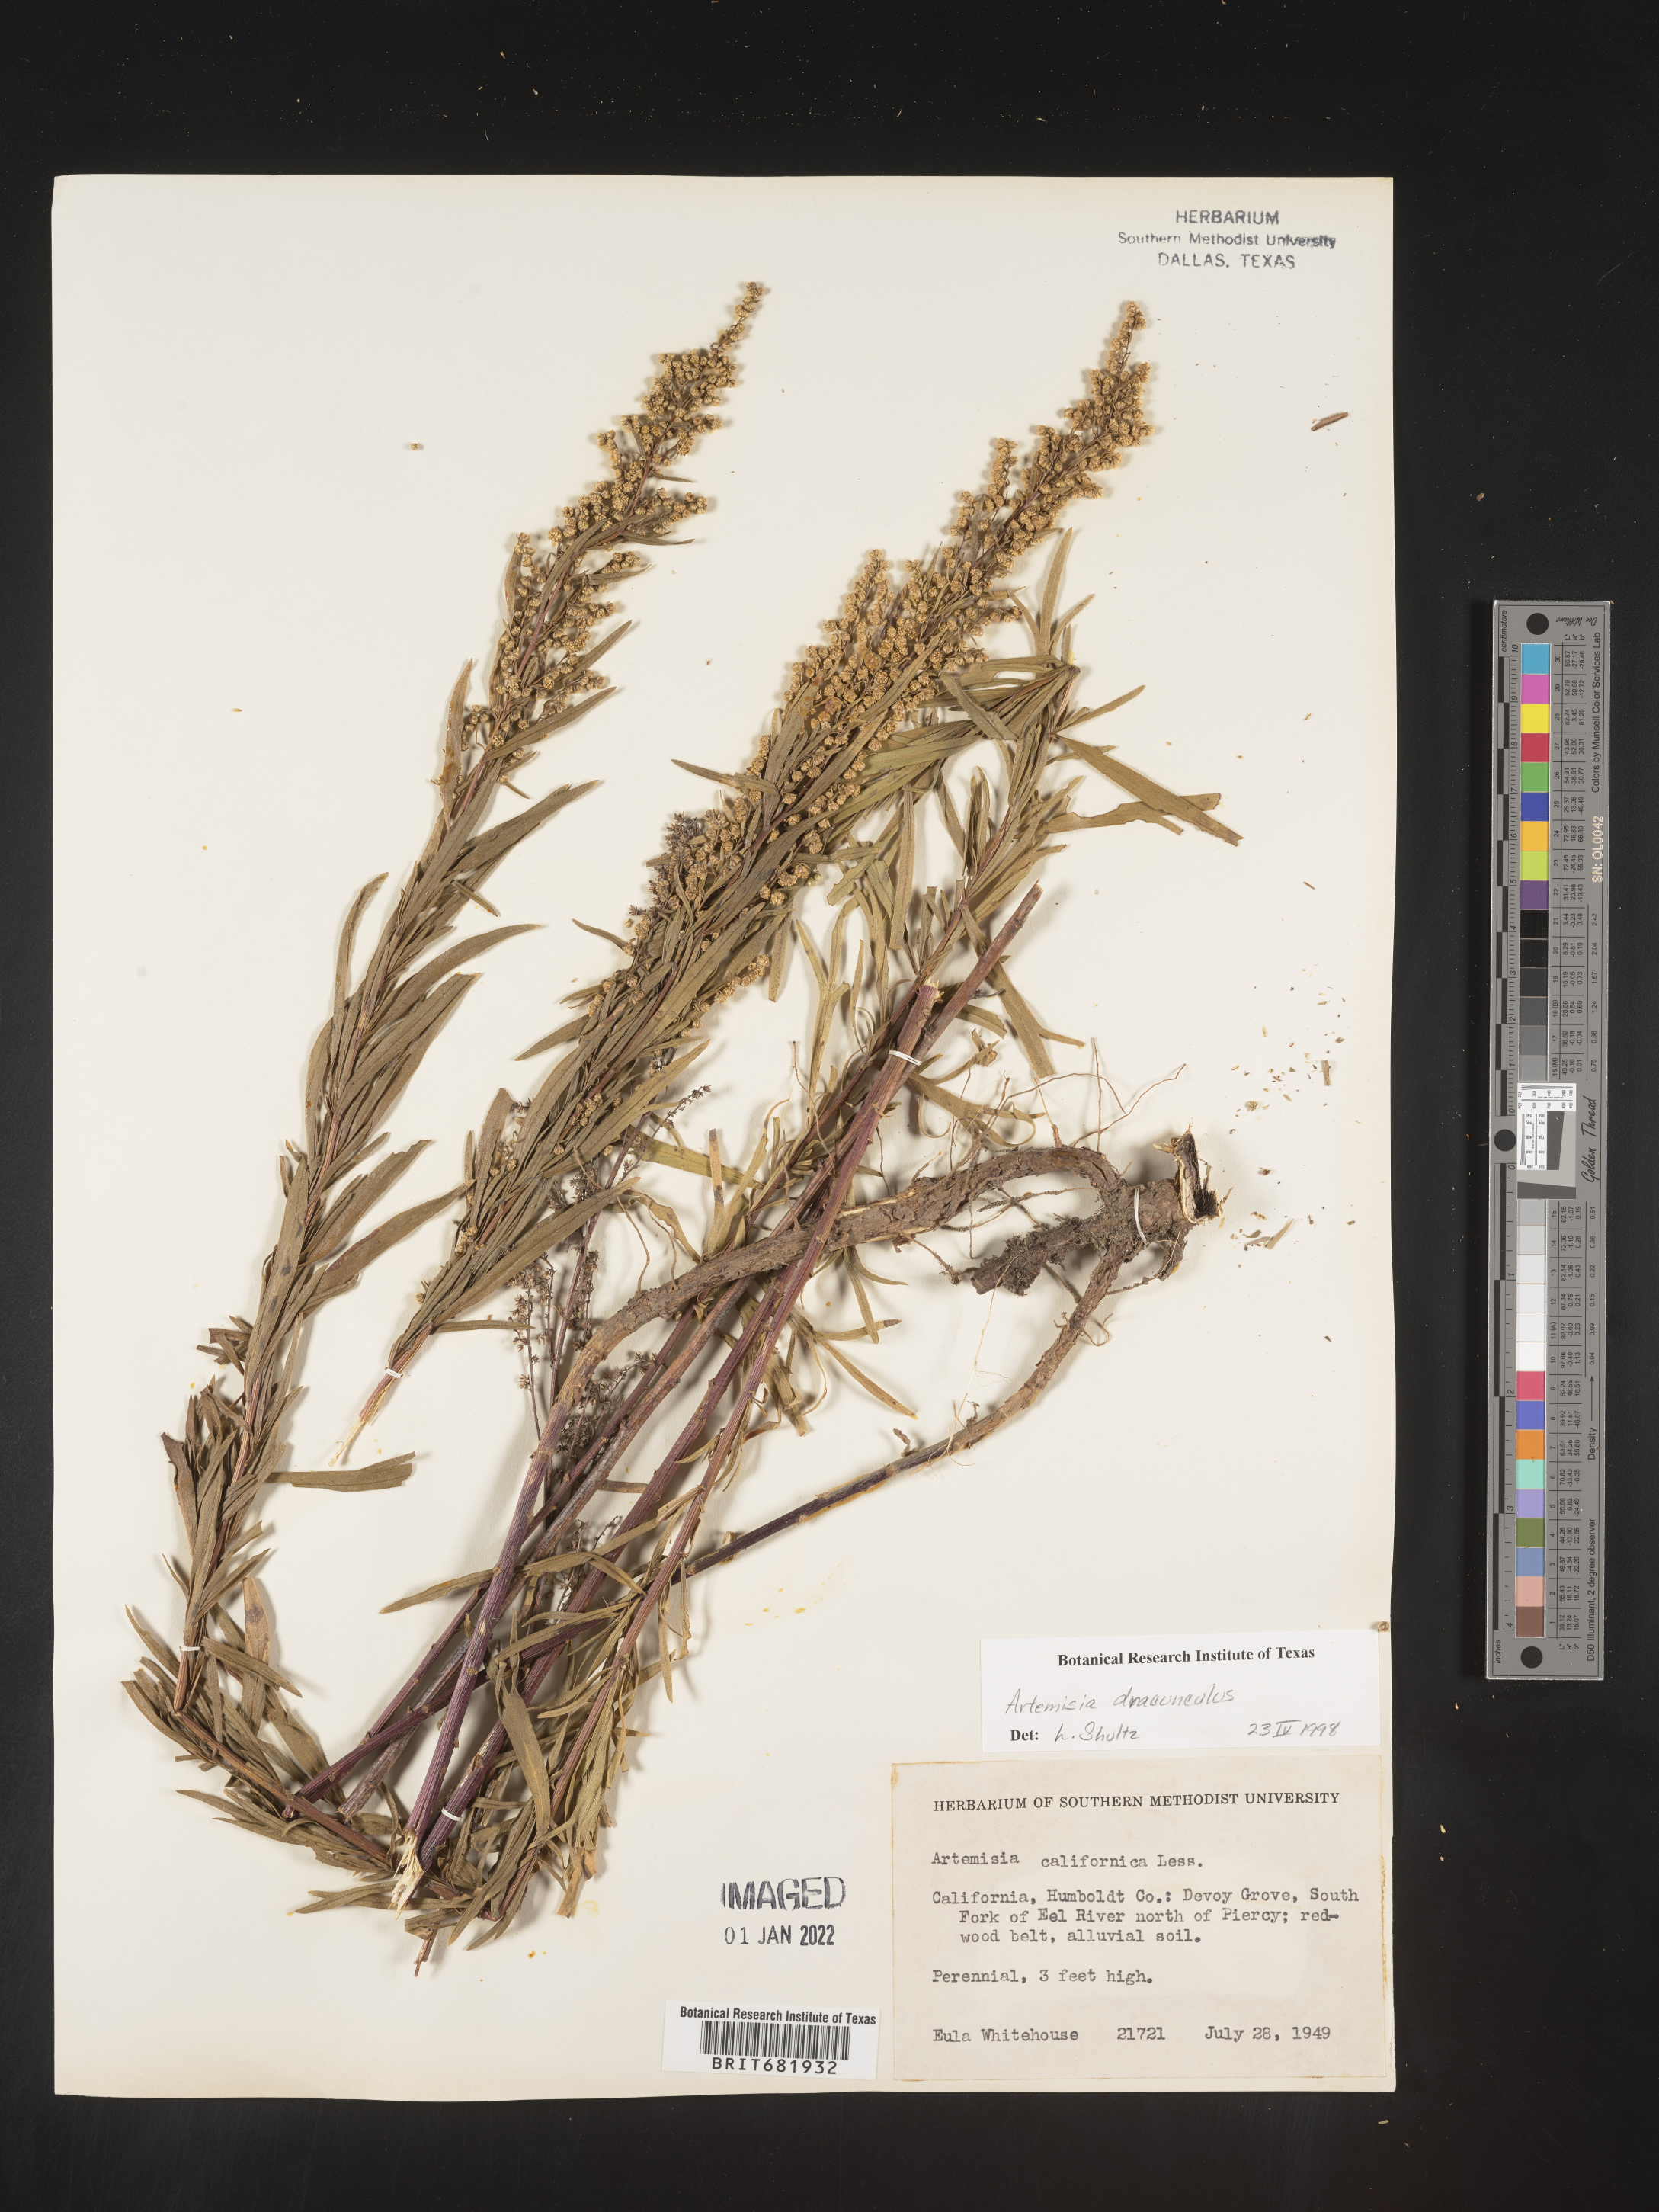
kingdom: Plantae
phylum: Tracheophyta
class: Magnoliopsida
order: Asterales
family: Asteraceae
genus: Artemisia
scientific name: Artemisia dracunculus
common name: Tarragon
